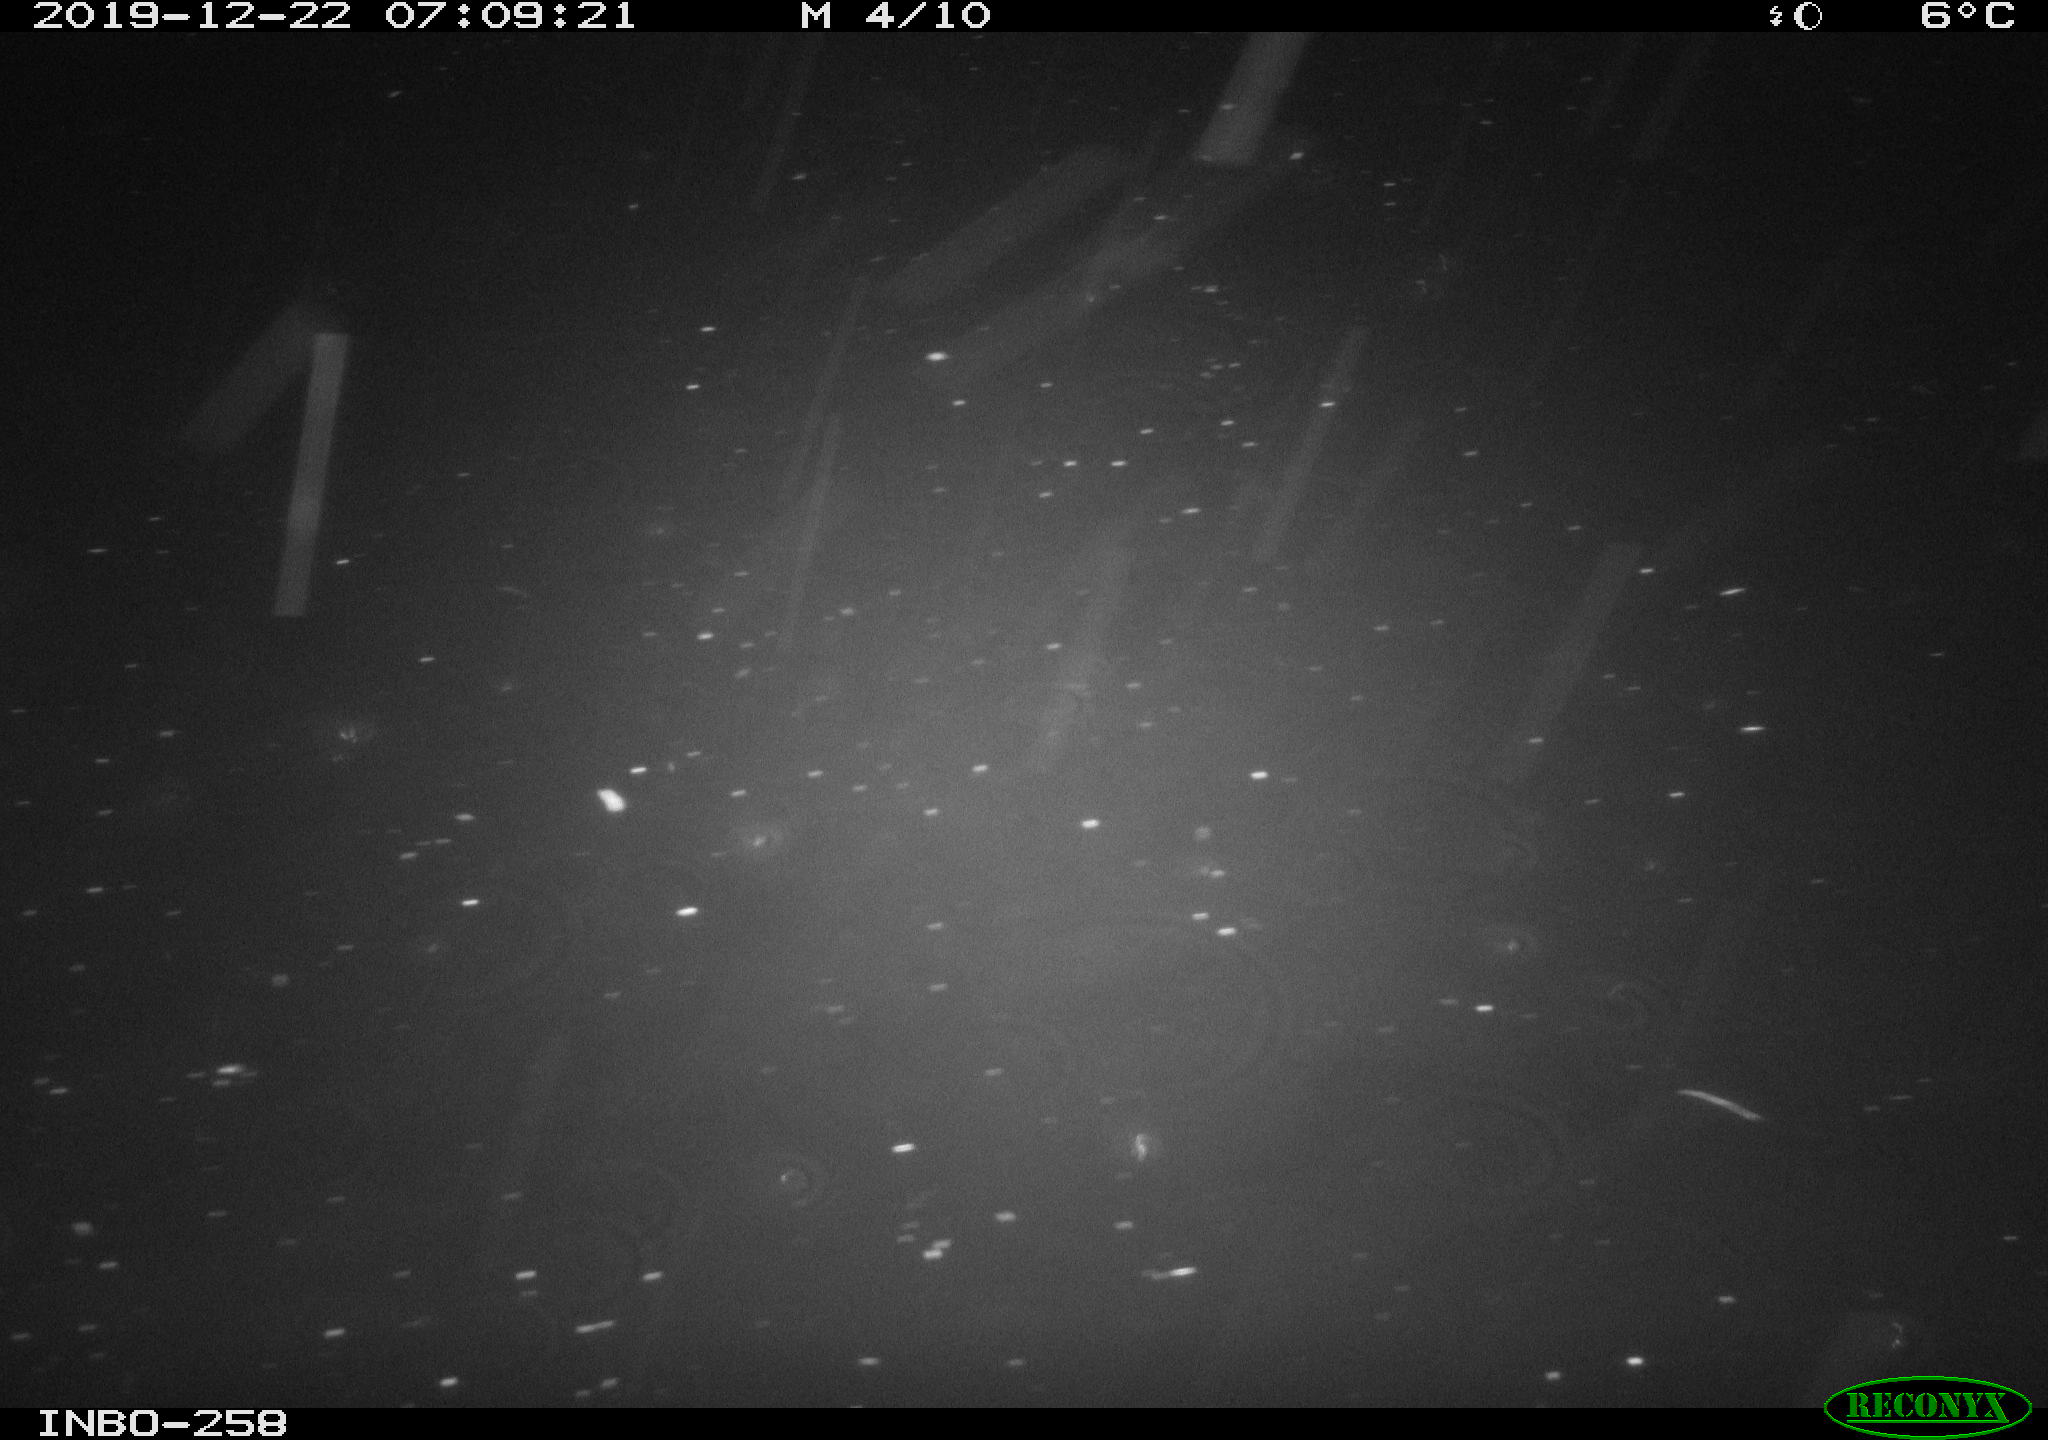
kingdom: Animalia
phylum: Chordata
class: Aves
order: Anseriformes
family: Anatidae
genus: Anas
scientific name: Anas platyrhynchos
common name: Mallard
